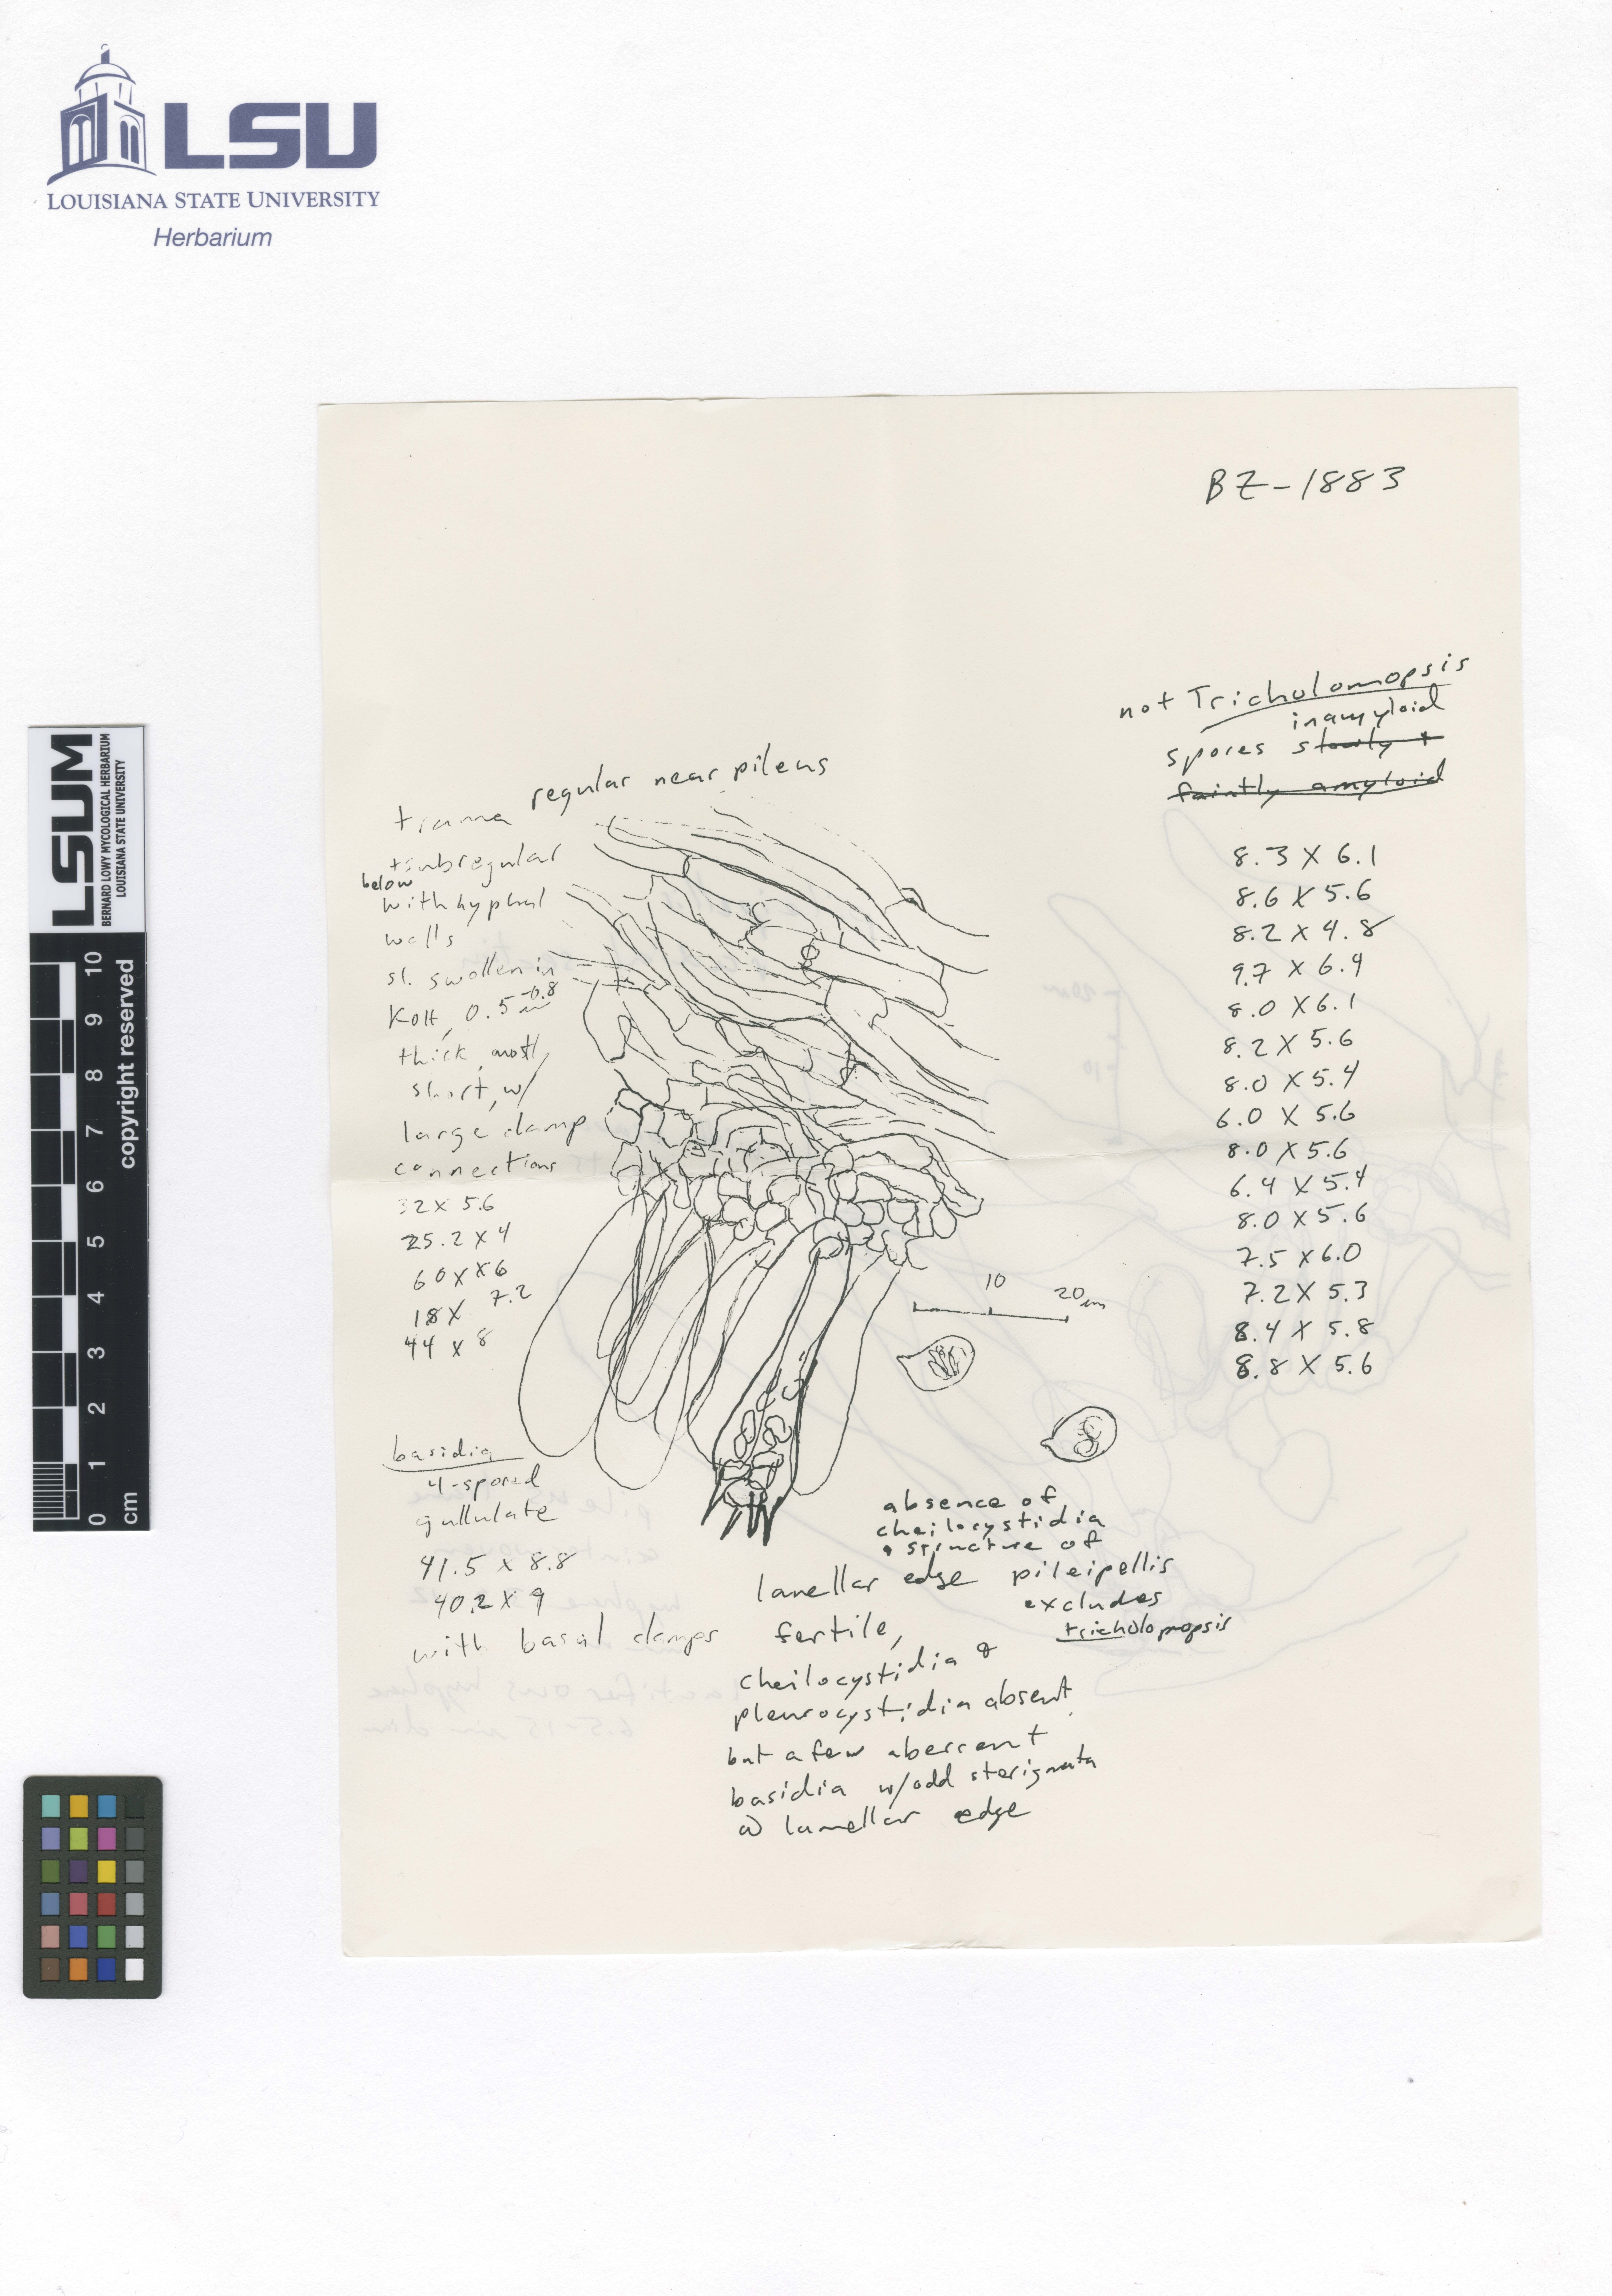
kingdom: Fungi
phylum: Basidiomycota
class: Agaricomycetes
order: Agaricales
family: Hygrophoraceae
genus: Cantharocybe
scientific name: Cantharocybe brunneovelutina
